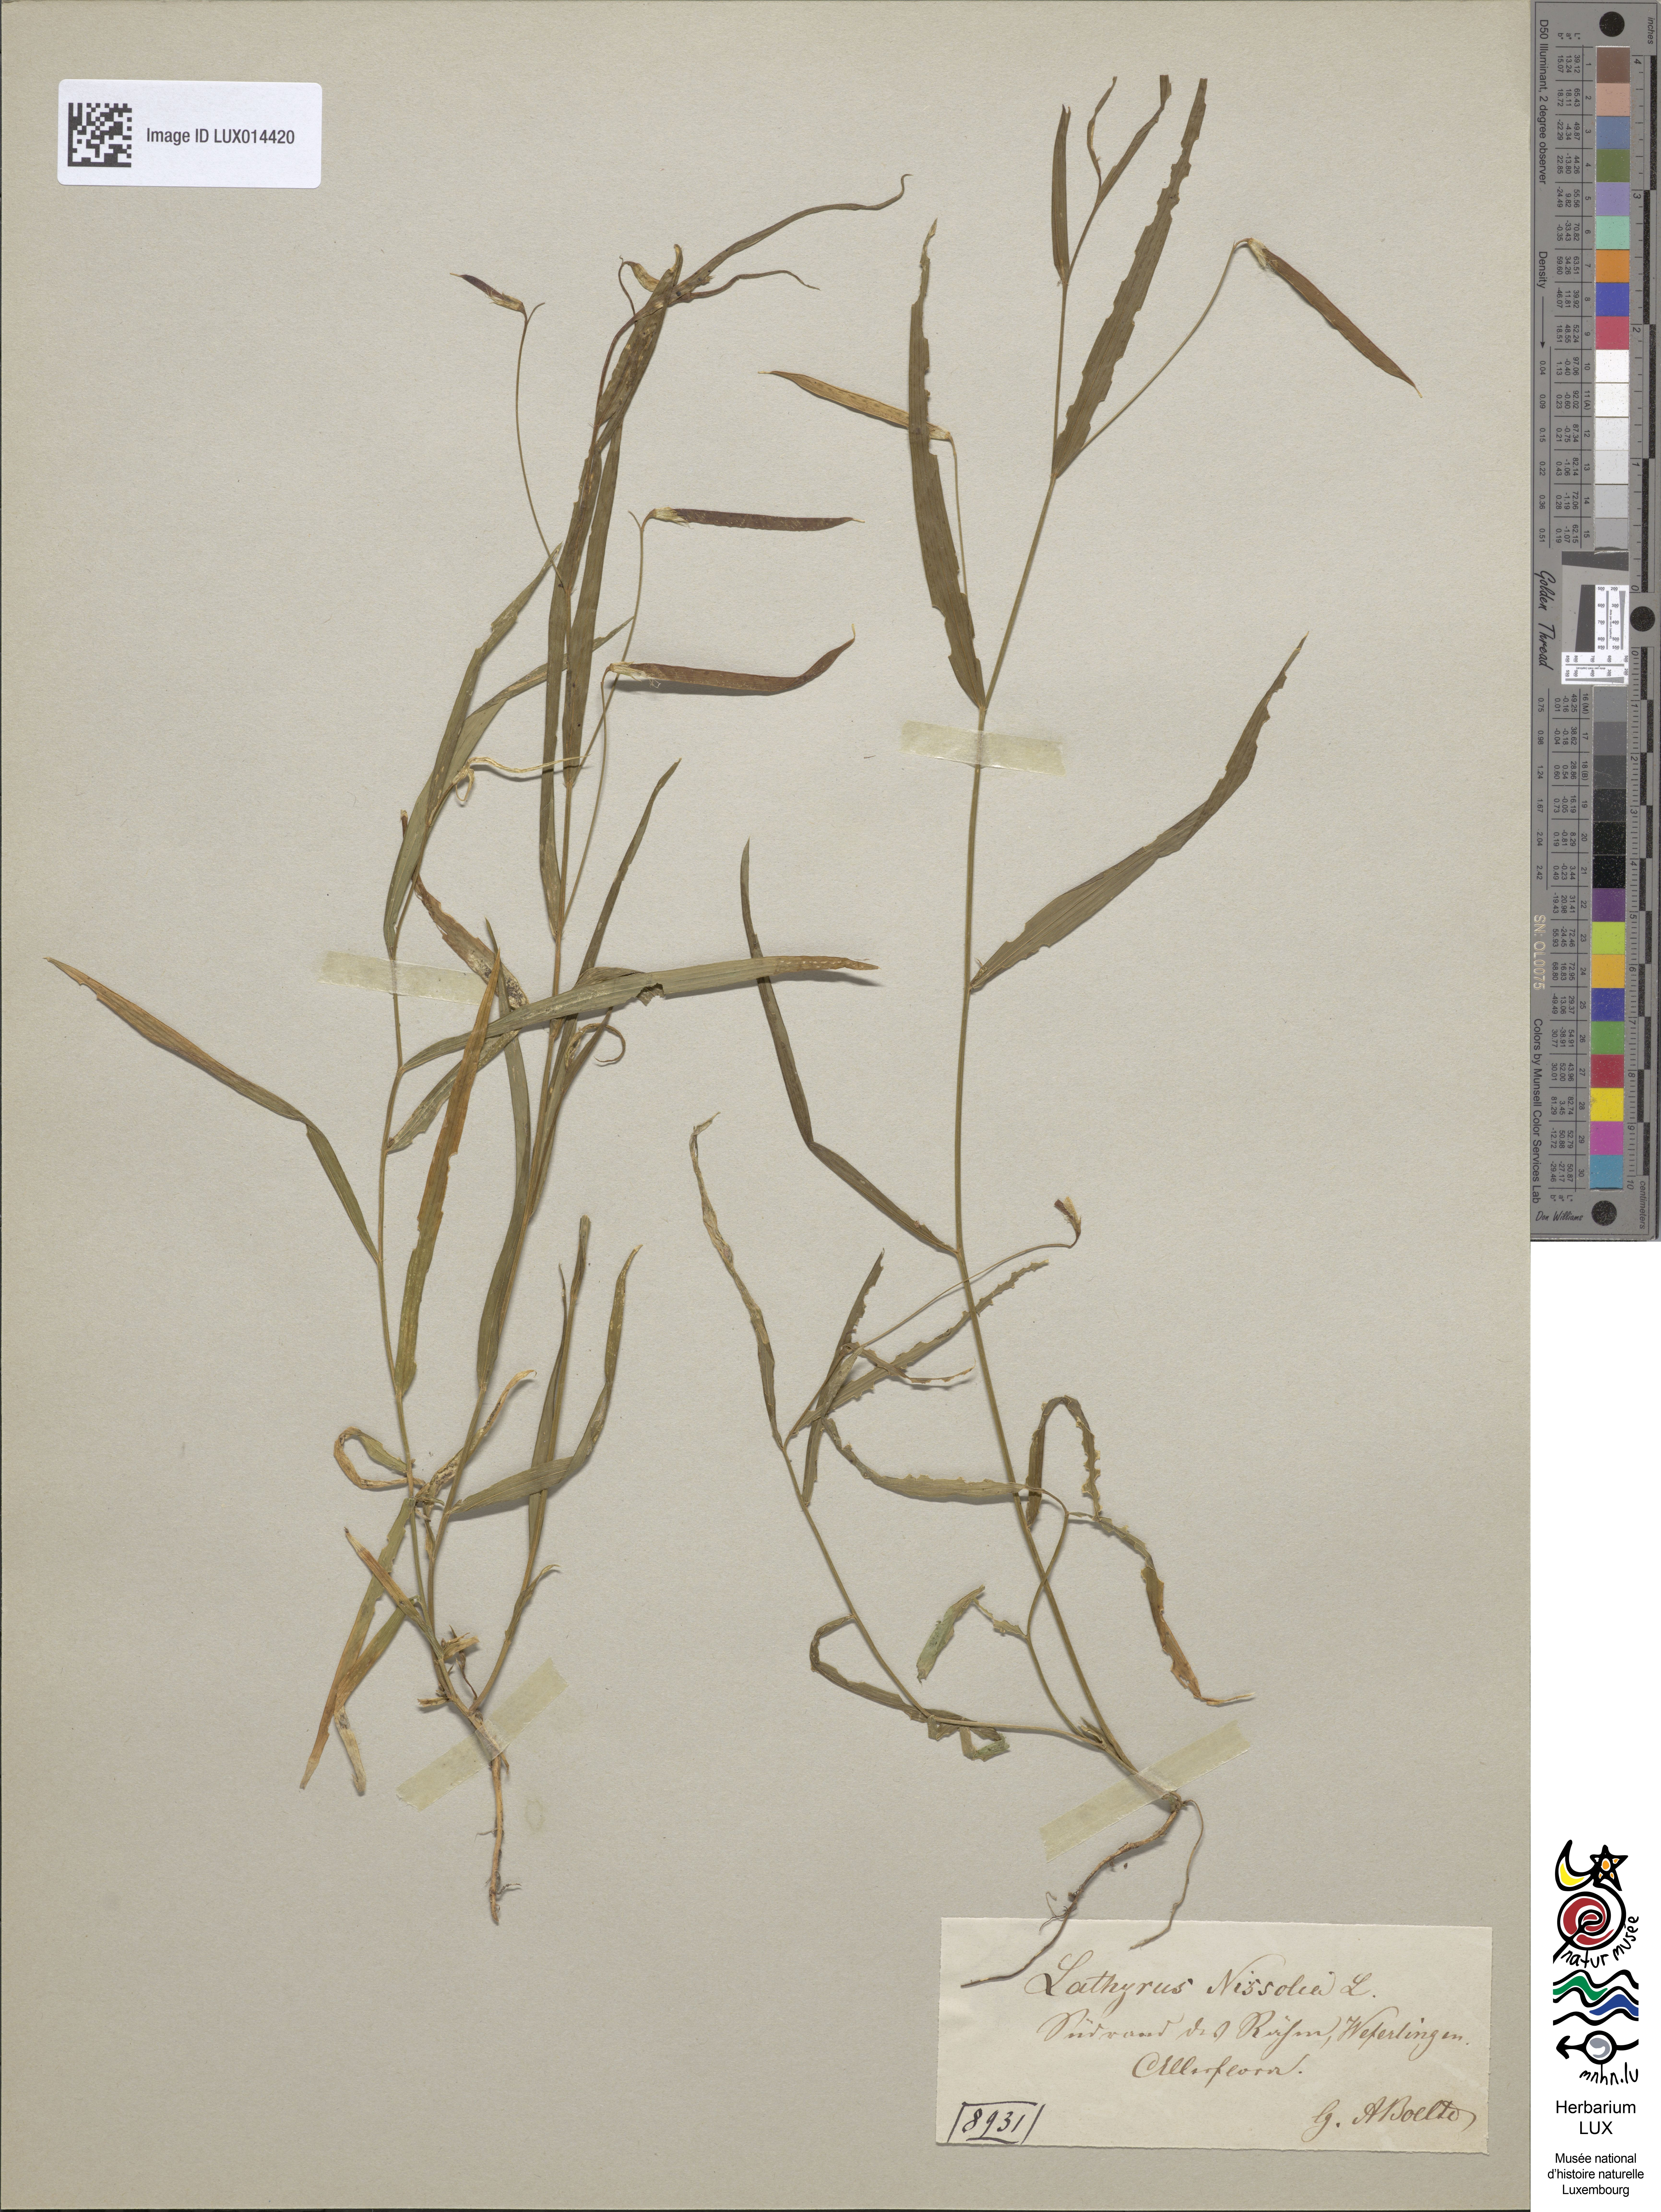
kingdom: Plantae
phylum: Tracheophyta
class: Magnoliopsida
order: Fabales
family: Fabaceae
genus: Lathyrus
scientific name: Lathyrus nissolia
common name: Grass vetchling
